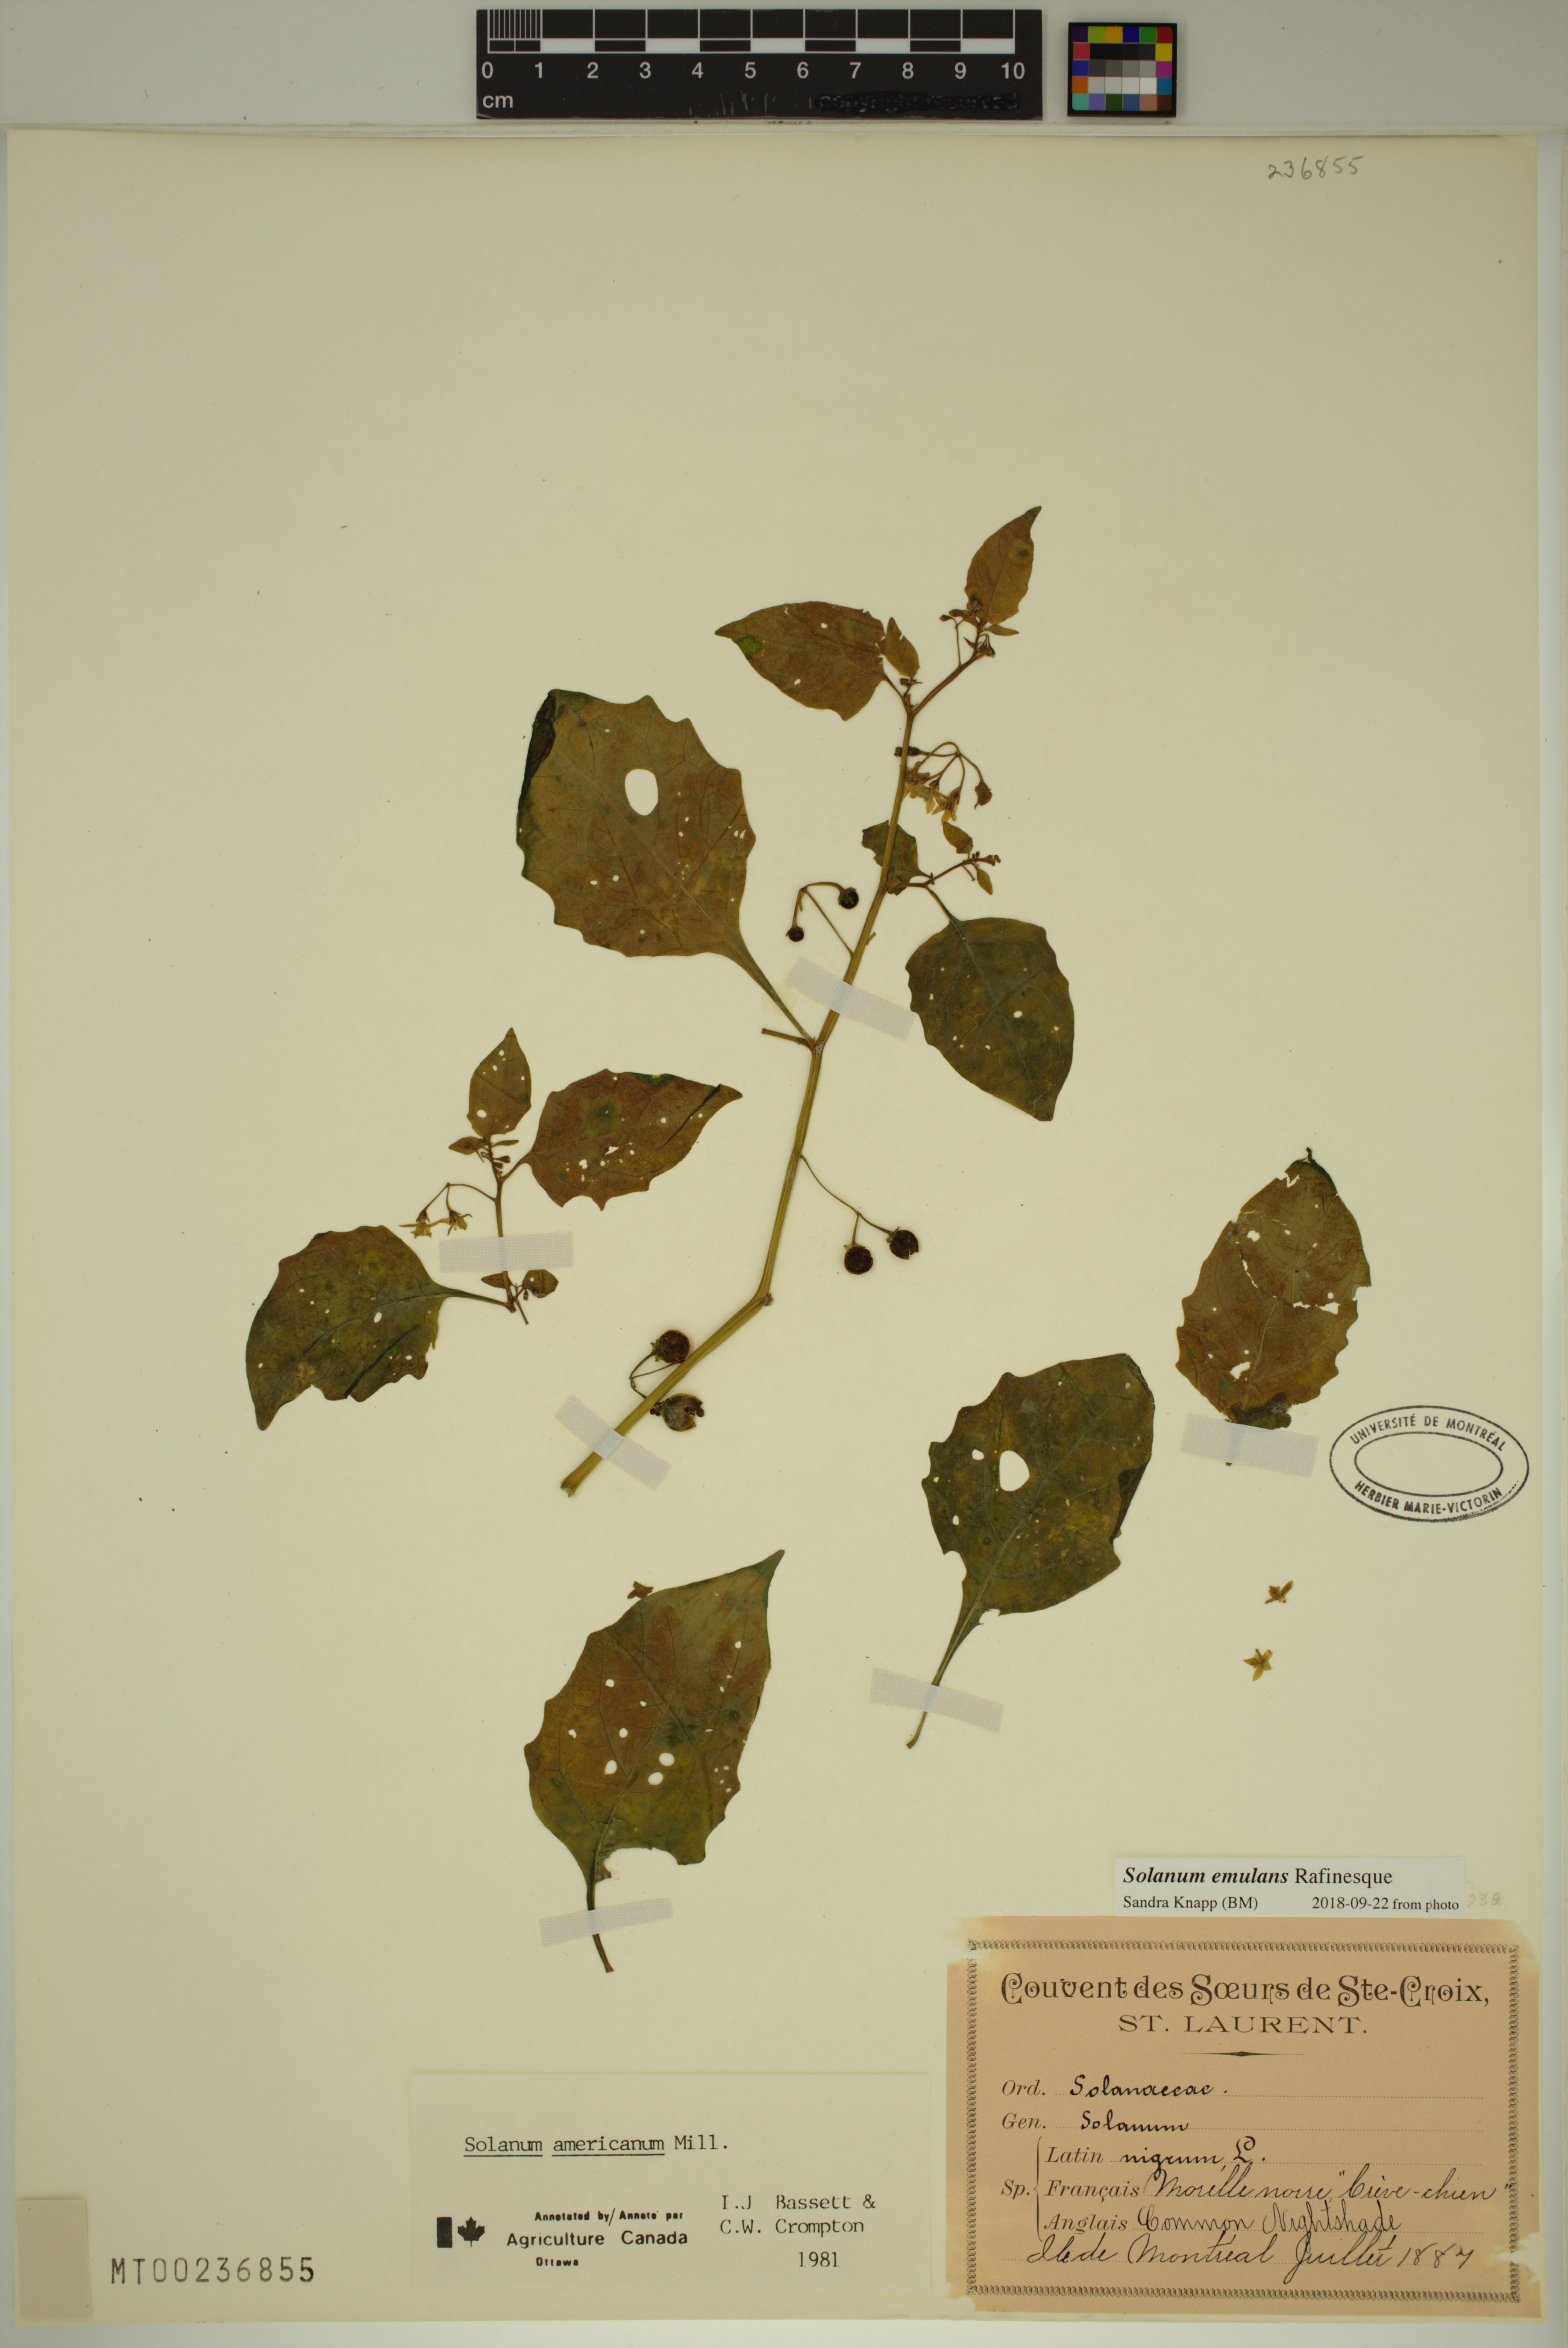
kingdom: Plantae
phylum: Tracheophyta
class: Magnoliopsida
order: Solanales
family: Solanaceae
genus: Solanum
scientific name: Solanum emulans
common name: Eastern black nightshade
